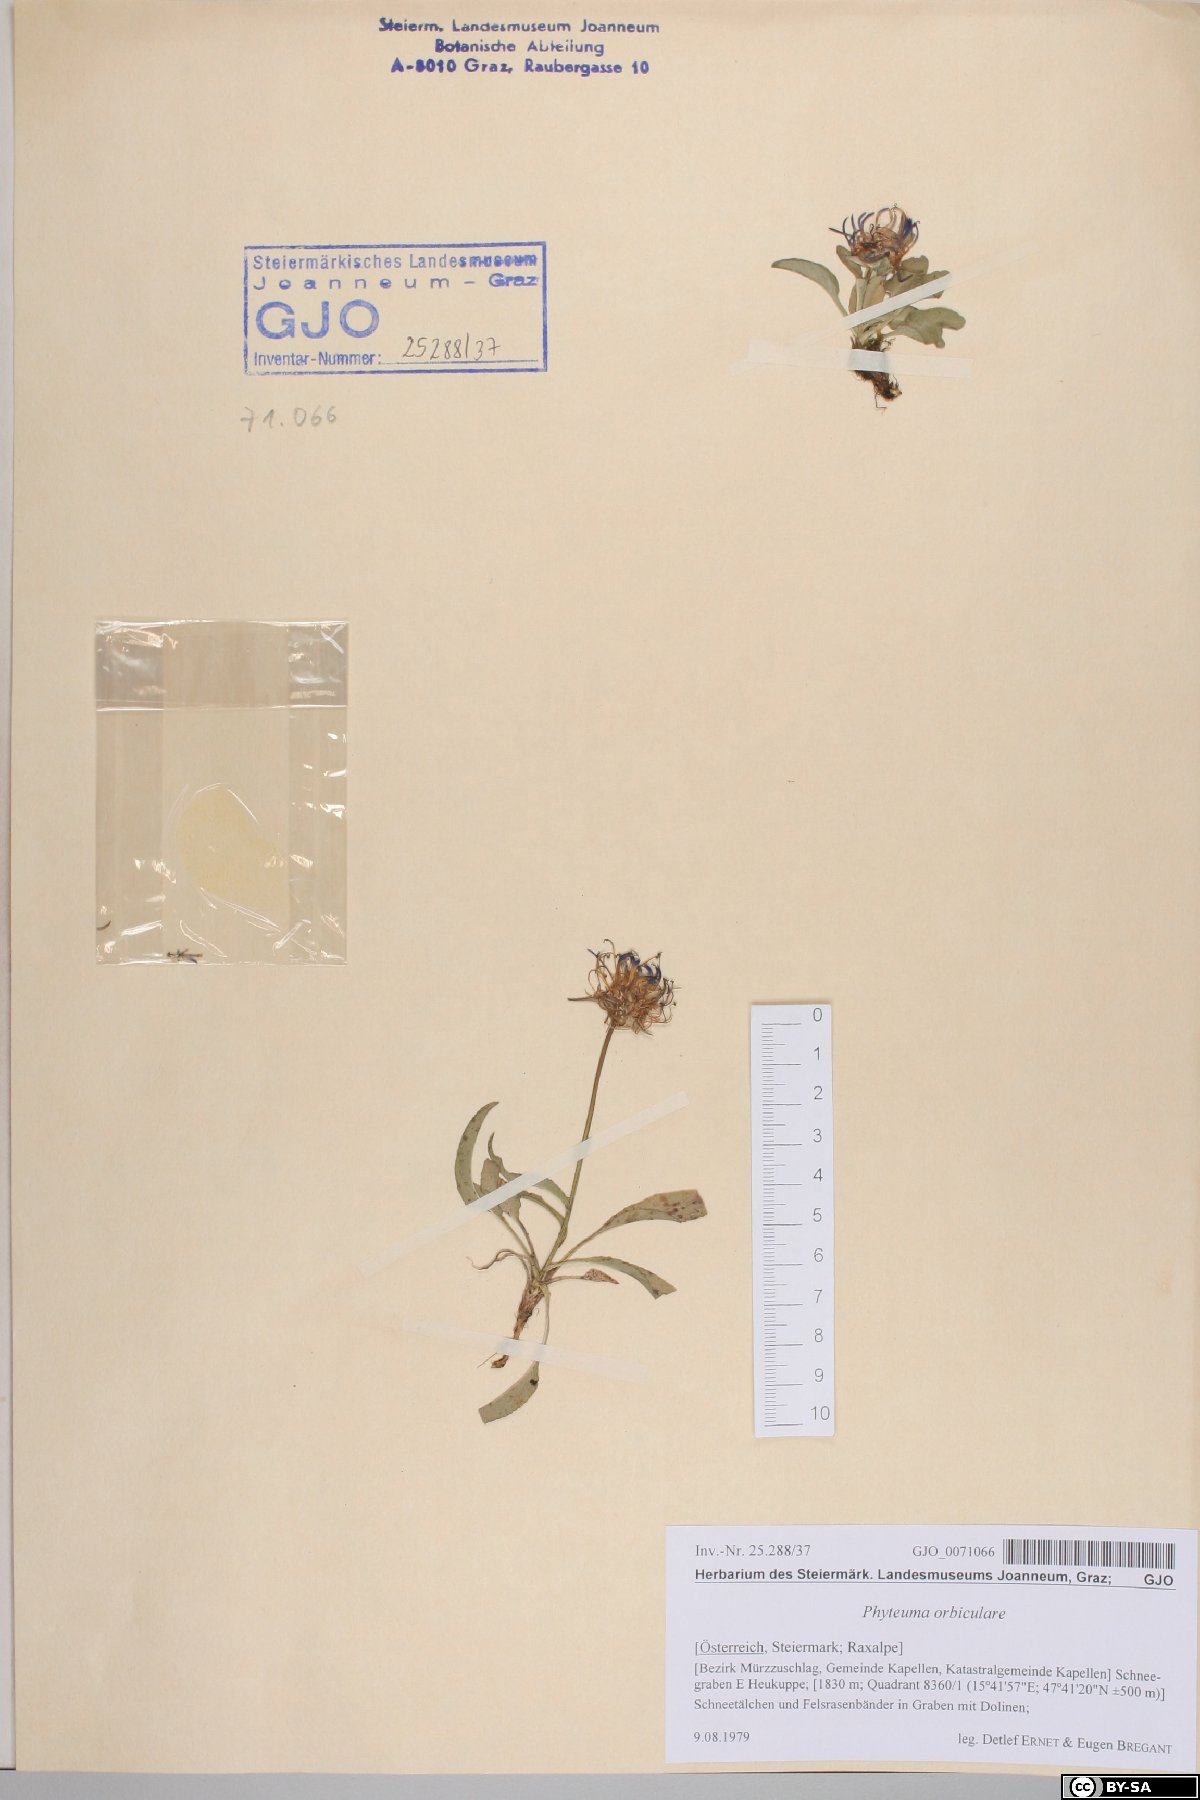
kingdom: Plantae
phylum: Tracheophyta
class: Magnoliopsida
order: Asterales
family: Campanulaceae
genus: Phyteuma
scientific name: Phyteuma orbiculare
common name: Round-headed rampion
